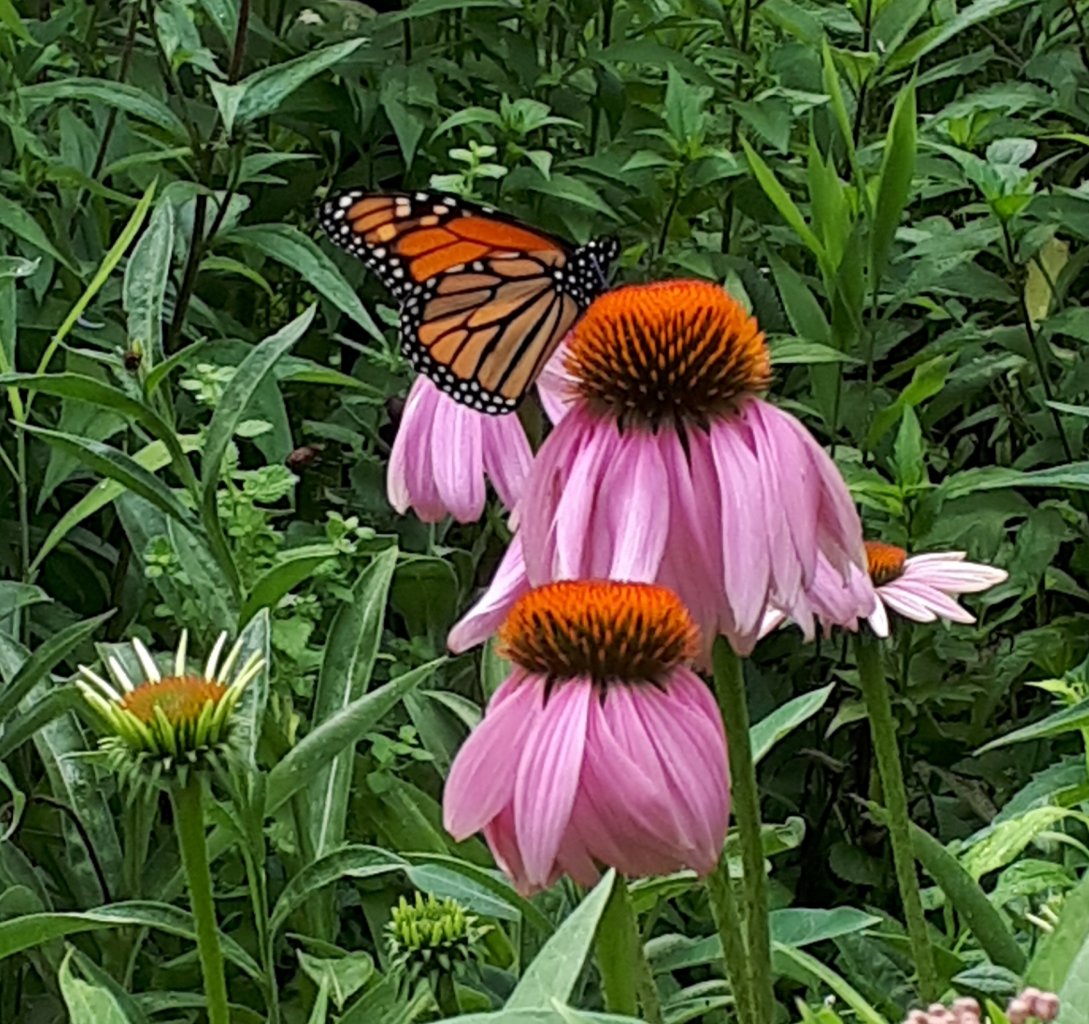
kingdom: Animalia
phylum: Arthropoda
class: Insecta
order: Lepidoptera
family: Nymphalidae
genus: Danaus
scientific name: Danaus plexippus
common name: Monarch
